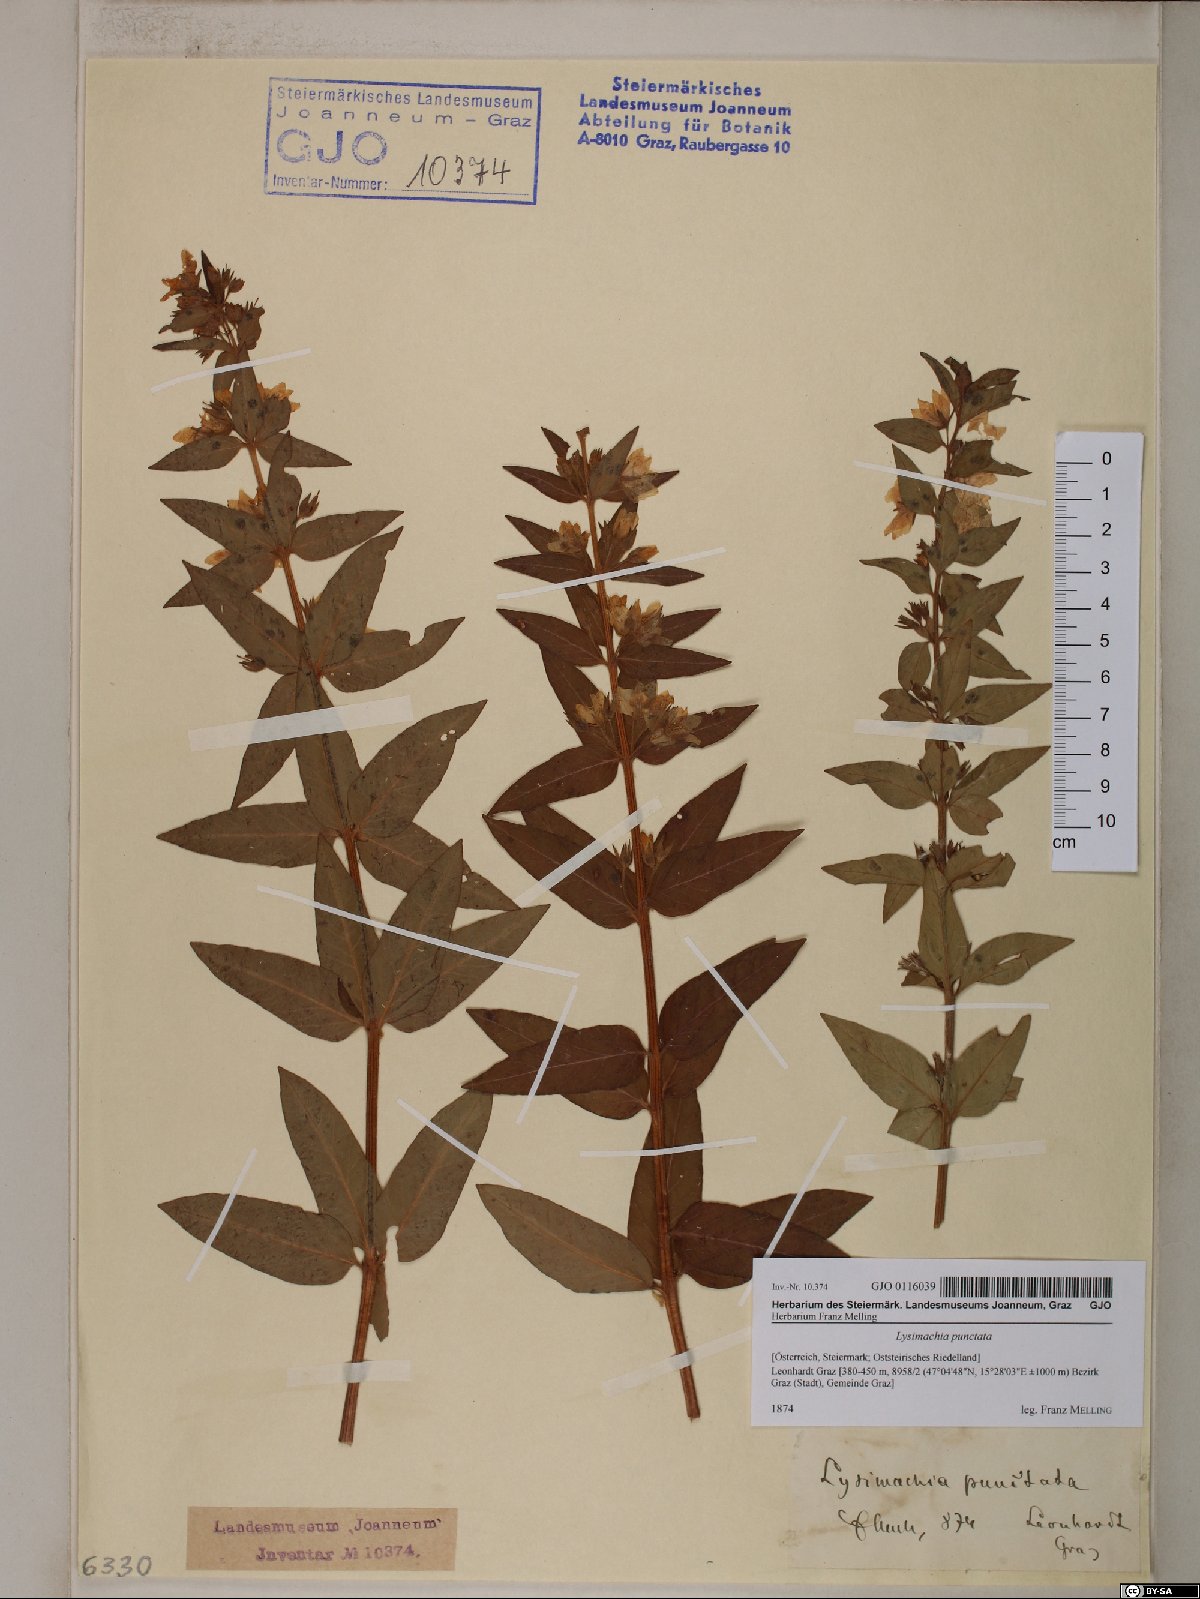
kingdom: Plantae
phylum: Tracheophyta
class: Magnoliopsida
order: Ericales
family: Primulaceae
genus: Lysimachia
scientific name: Lysimachia punctata
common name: Dotted loosestrife
